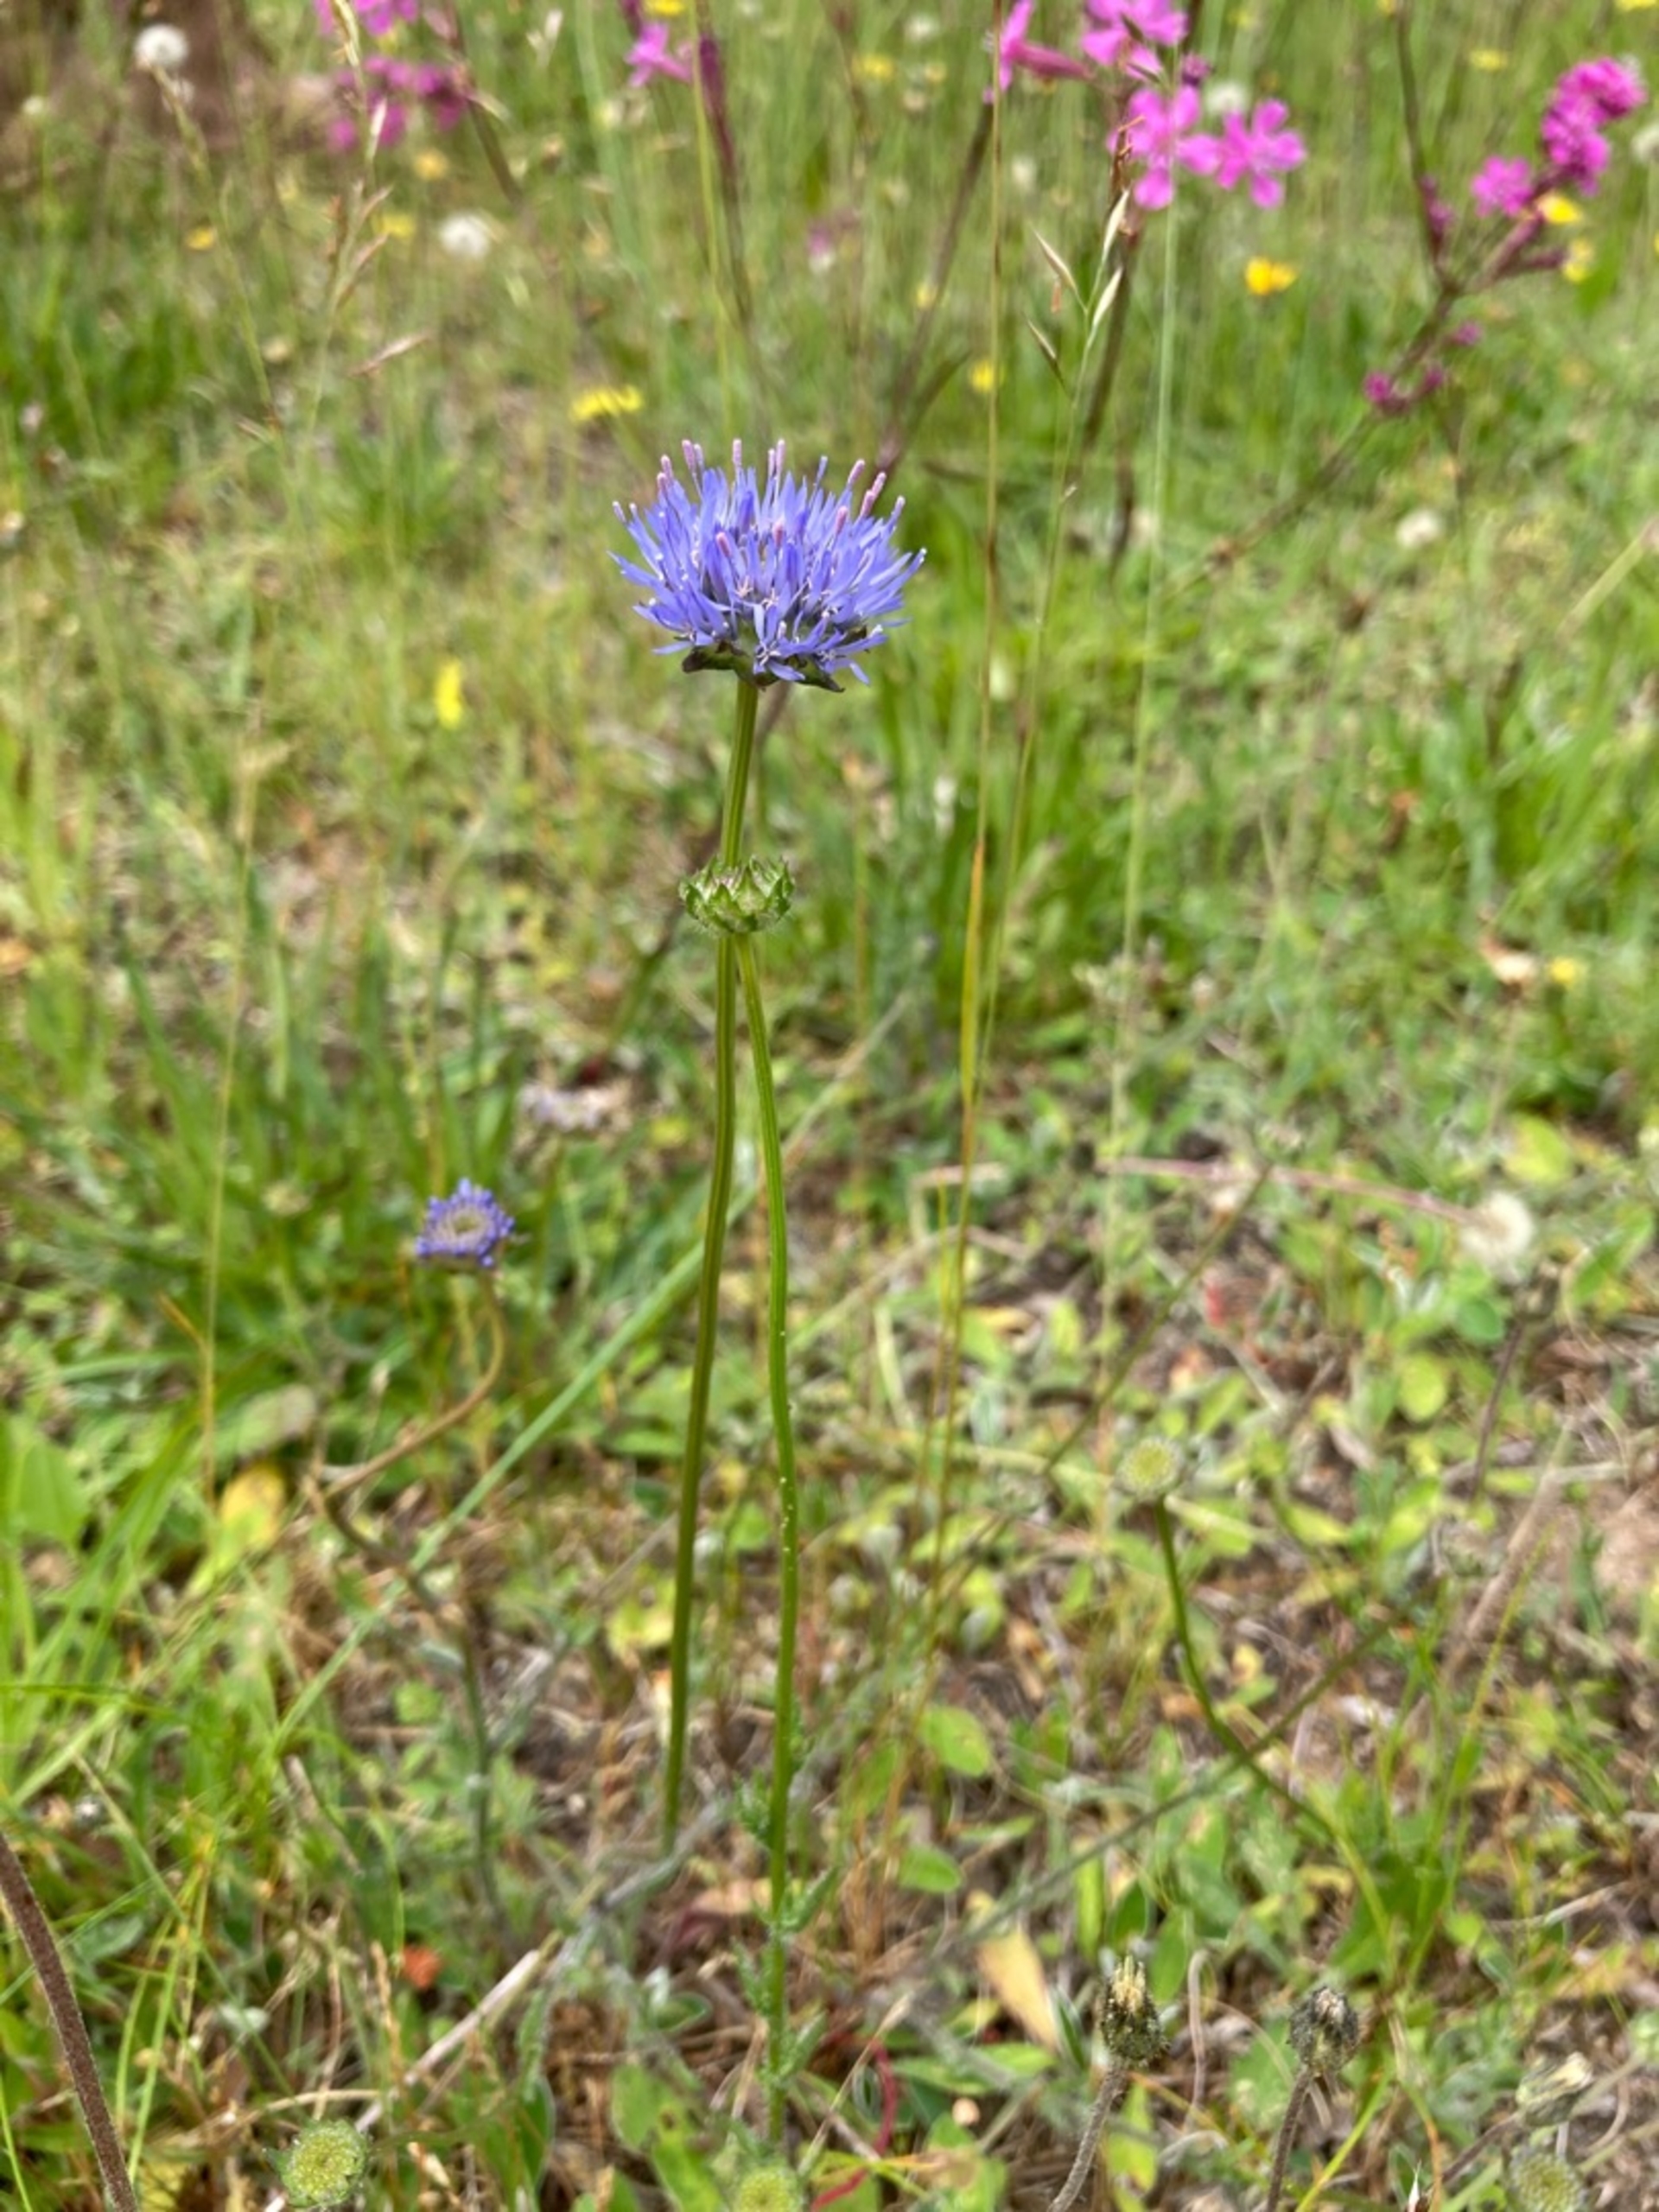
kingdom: Plantae
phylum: Tracheophyta
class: Magnoliopsida
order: Asterales
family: Campanulaceae
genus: Jasione
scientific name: Jasione montana
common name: Blåmunke
